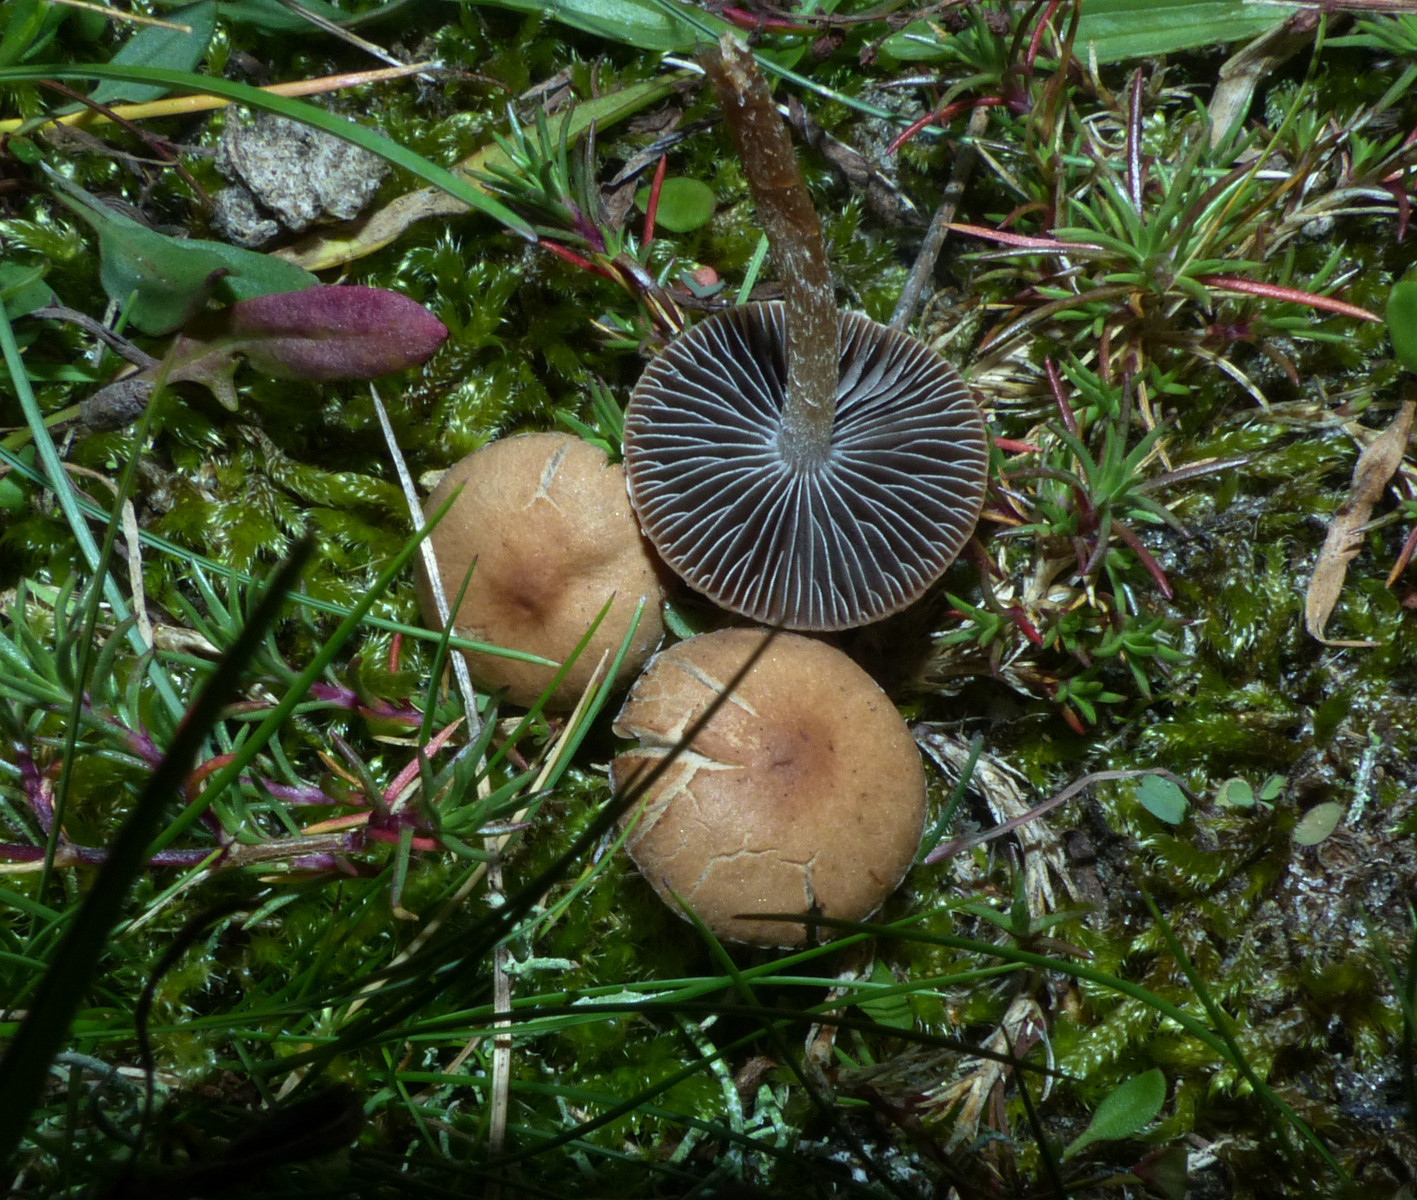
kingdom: Fungi
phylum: Basidiomycota
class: Agaricomycetes
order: Agaricales
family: Psathyrellaceae
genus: Psathyrella
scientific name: Psathyrella
